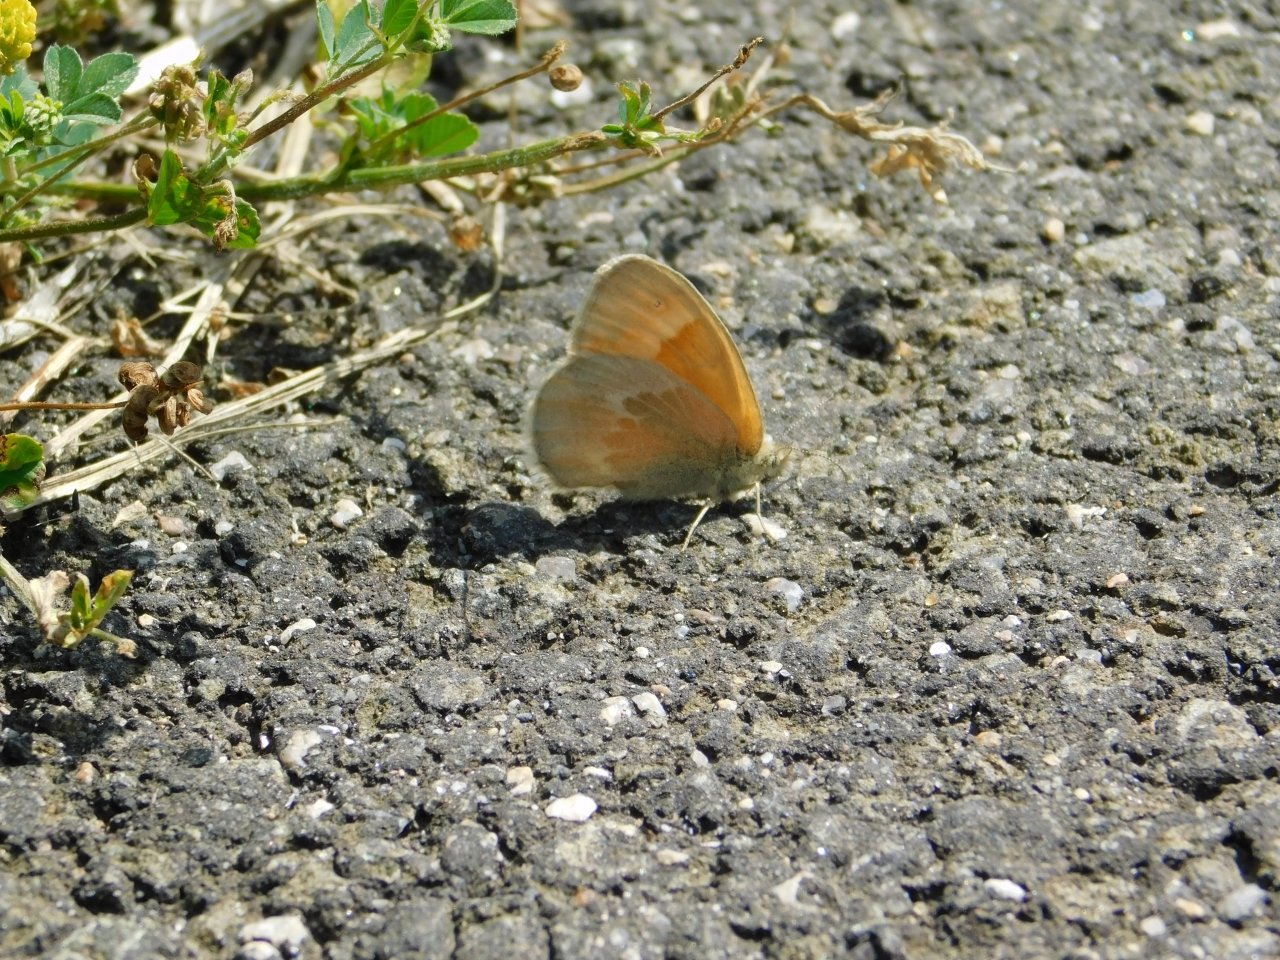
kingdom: Animalia
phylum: Arthropoda
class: Insecta
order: Lepidoptera
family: Nymphalidae
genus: Coenonympha
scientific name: Coenonympha tullia
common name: Large Heath
